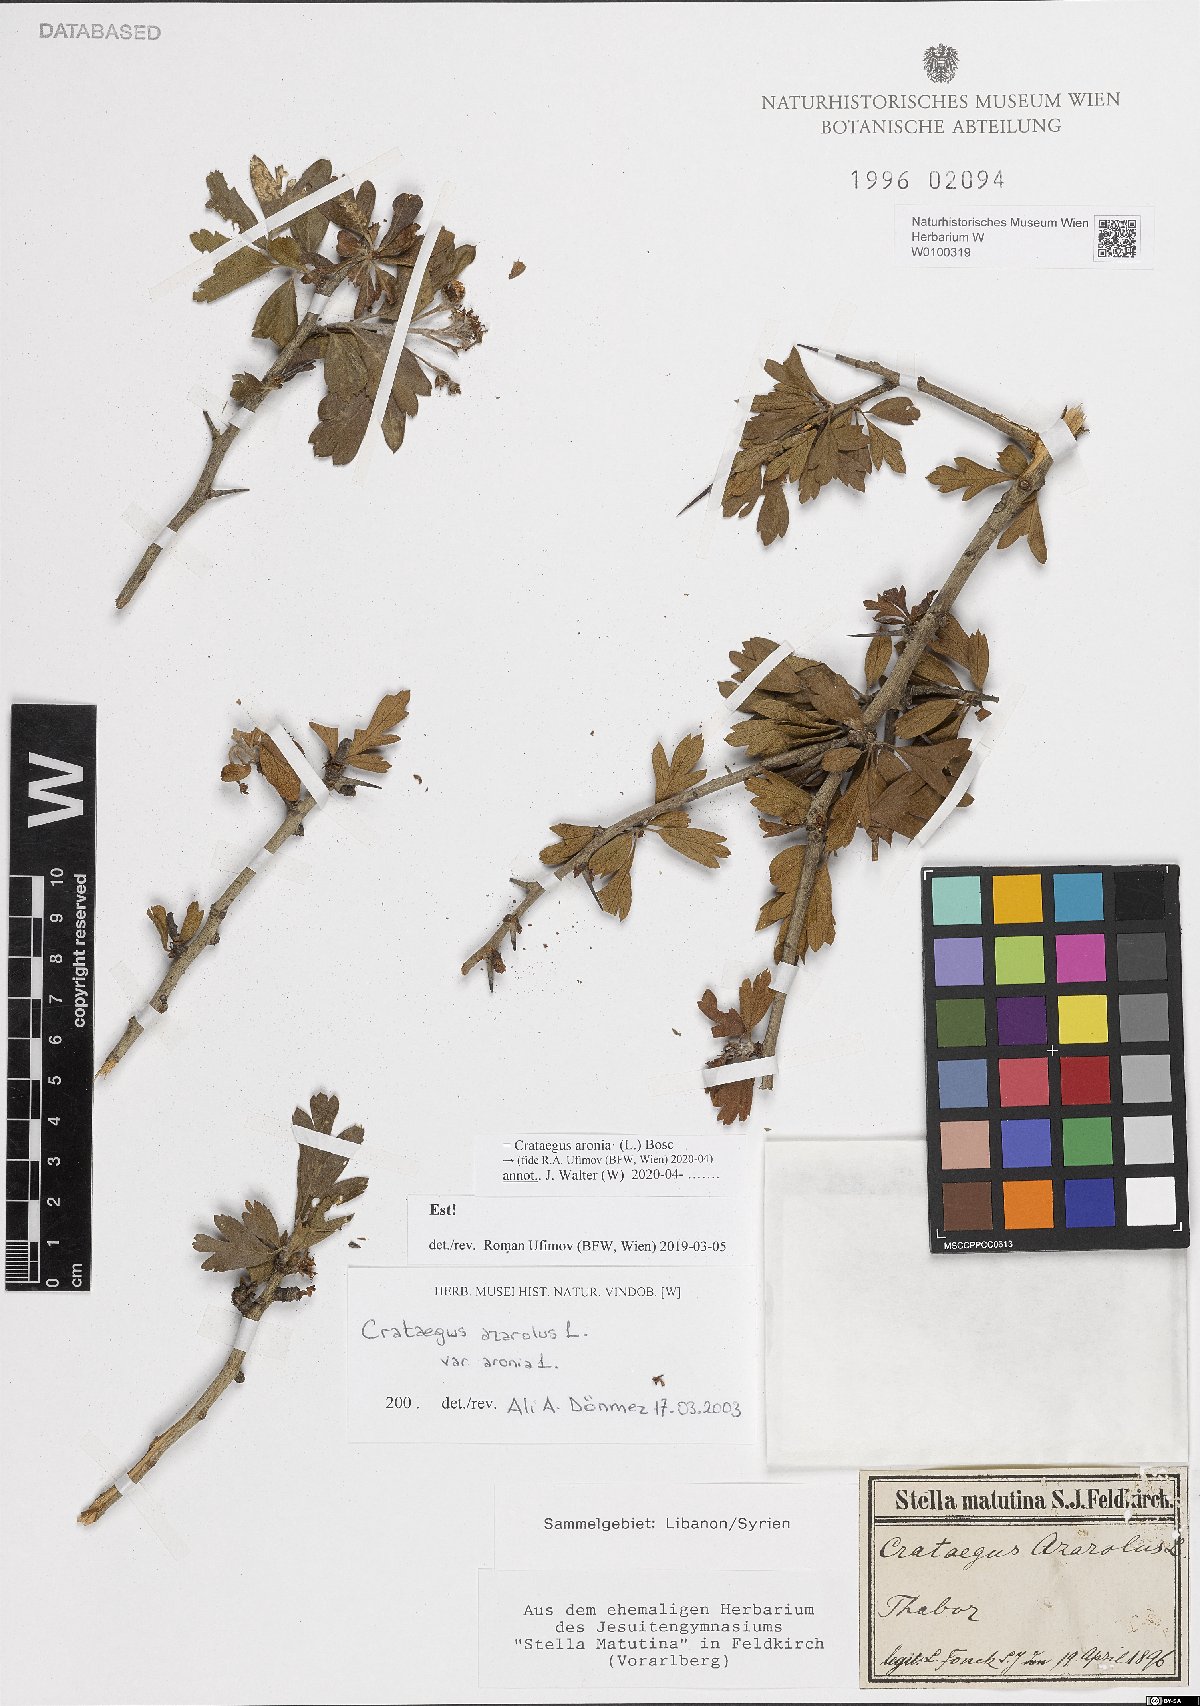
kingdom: Plantae
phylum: Tracheophyta
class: Magnoliopsida
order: Rosales
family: Rosaceae
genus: Crataegus
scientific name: Crataegus azarolus
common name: Azarole
